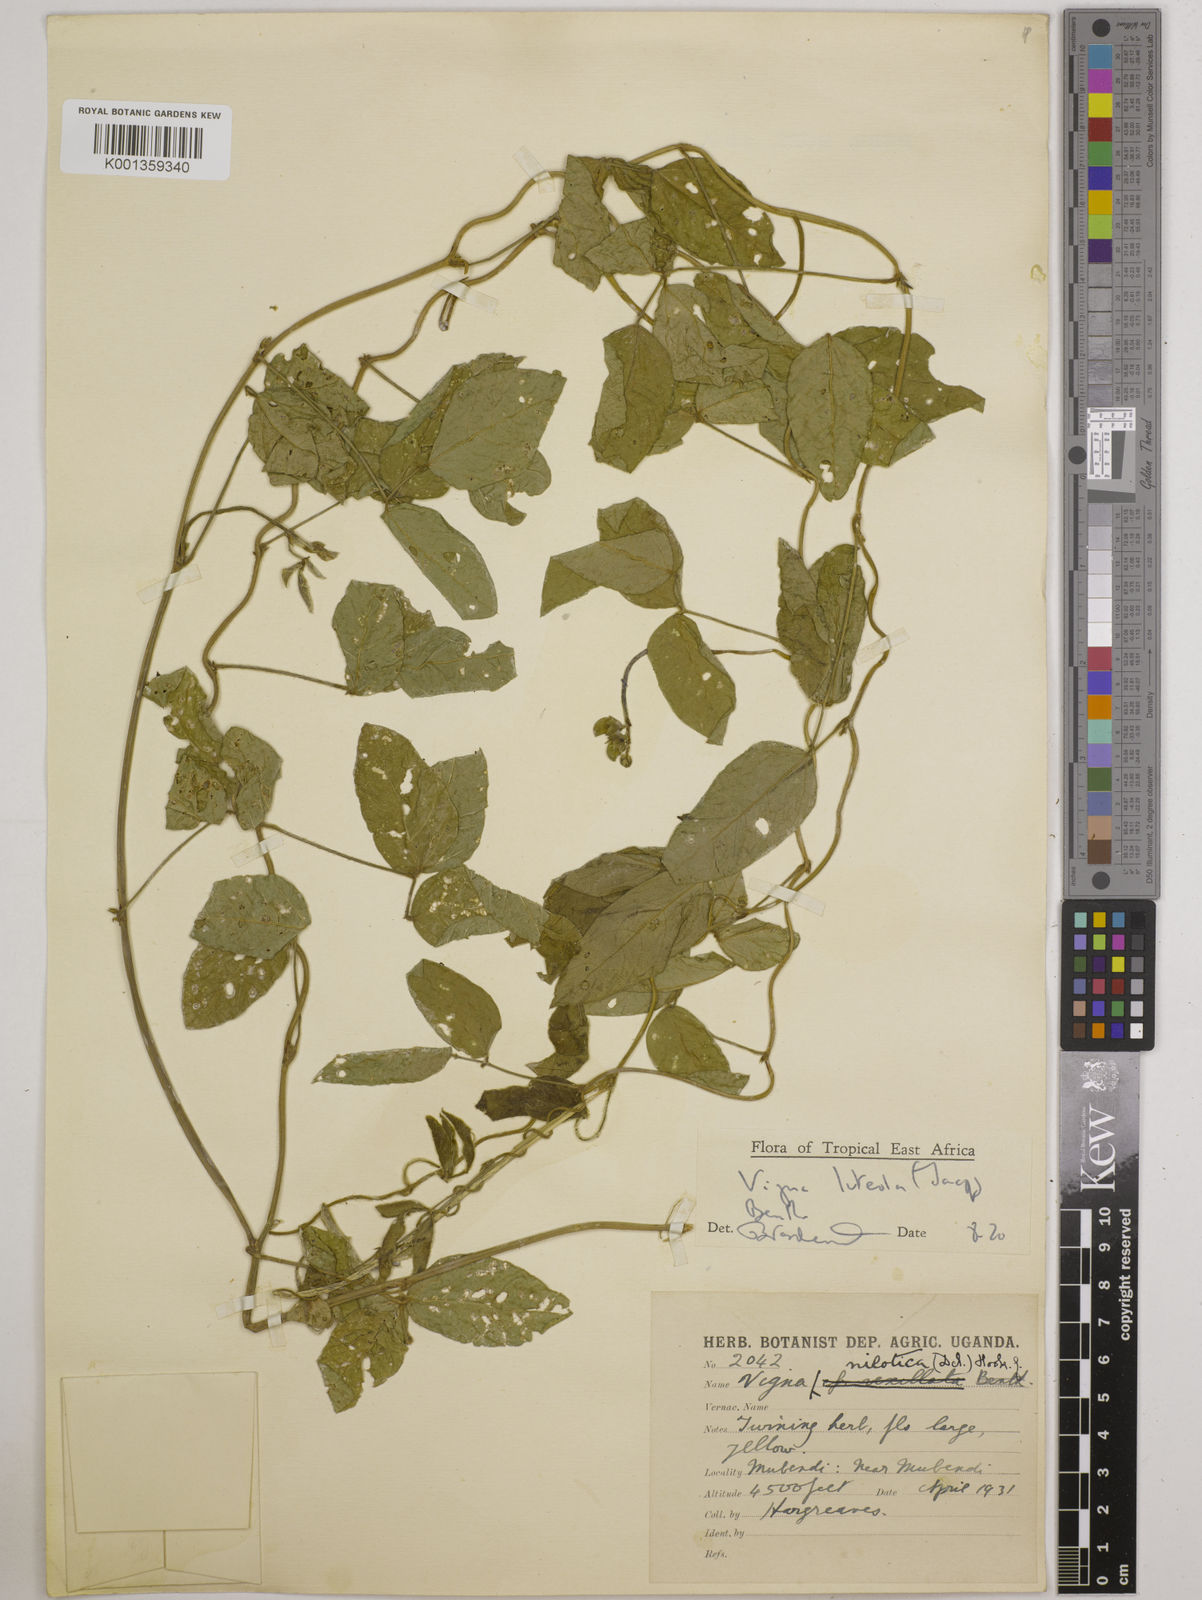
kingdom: Plantae
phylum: Tracheophyta
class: Magnoliopsida
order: Fabales
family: Fabaceae
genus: Vigna
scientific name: Vigna luteola
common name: Hairypod cowpea
